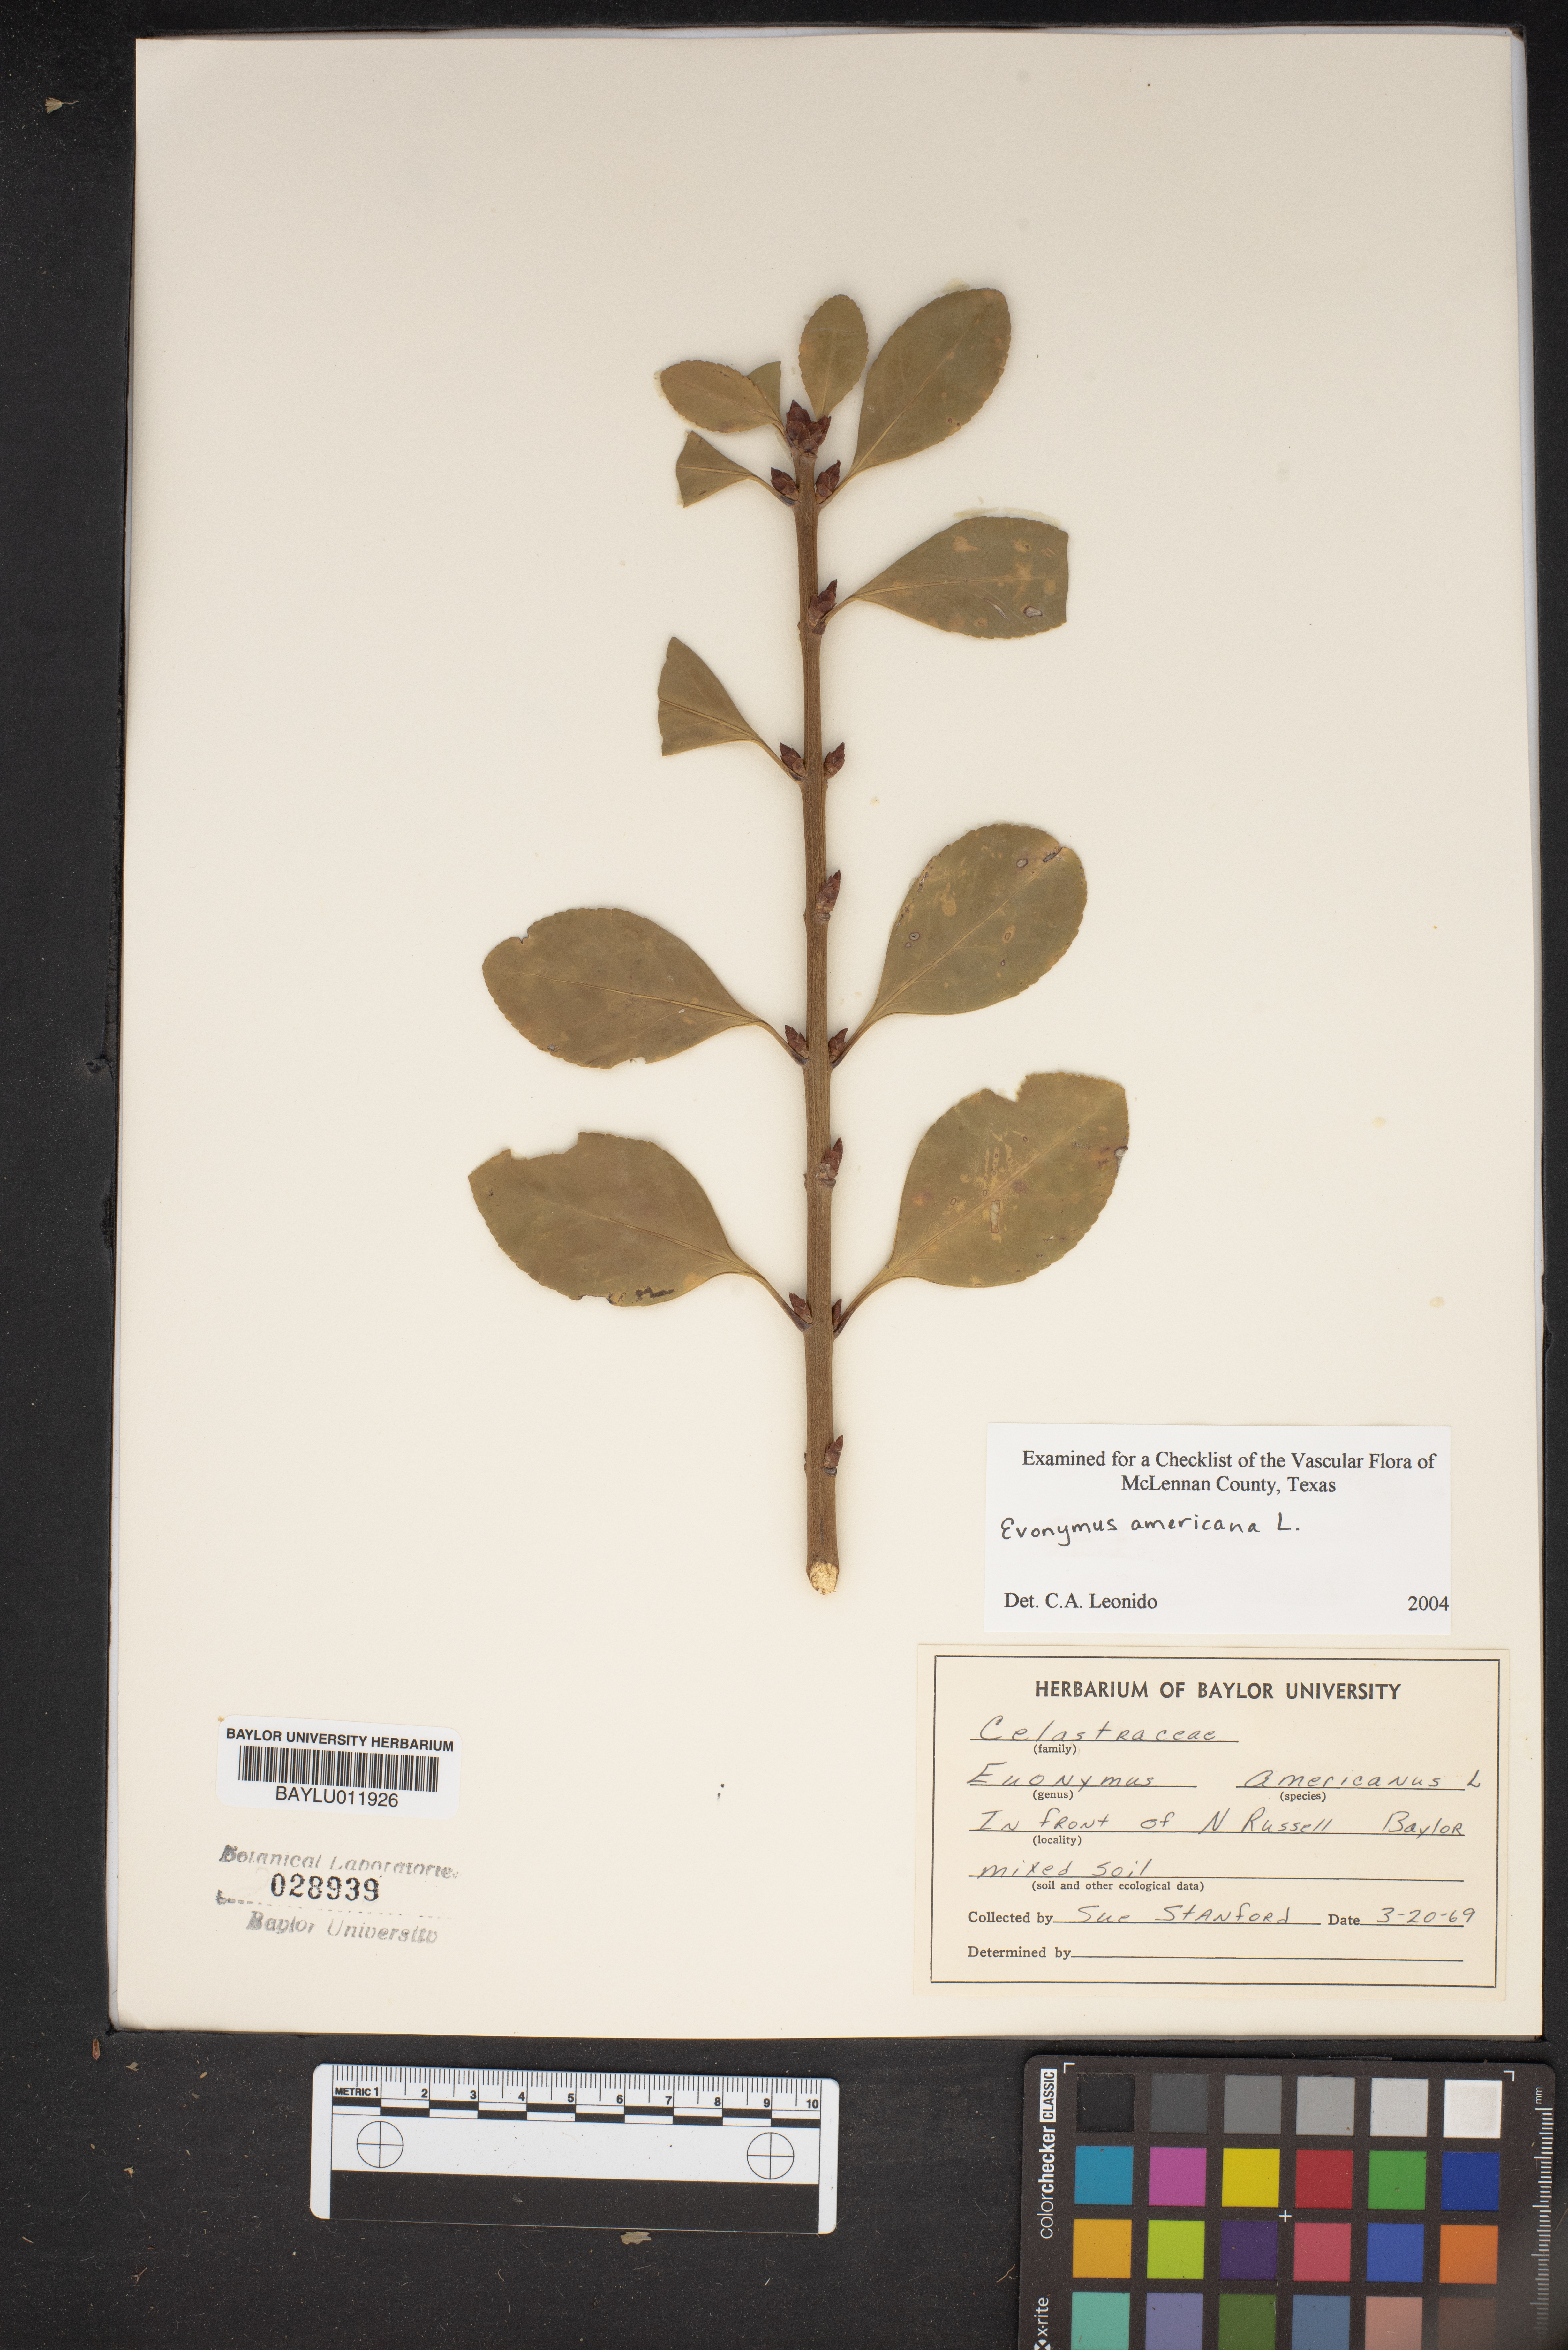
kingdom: Plantae
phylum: Tracheophyta
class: Magnoliopsida
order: Celastrales
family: Celastraceae
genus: Euonymus
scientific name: Euonymus americanus
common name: Bursting-heart
